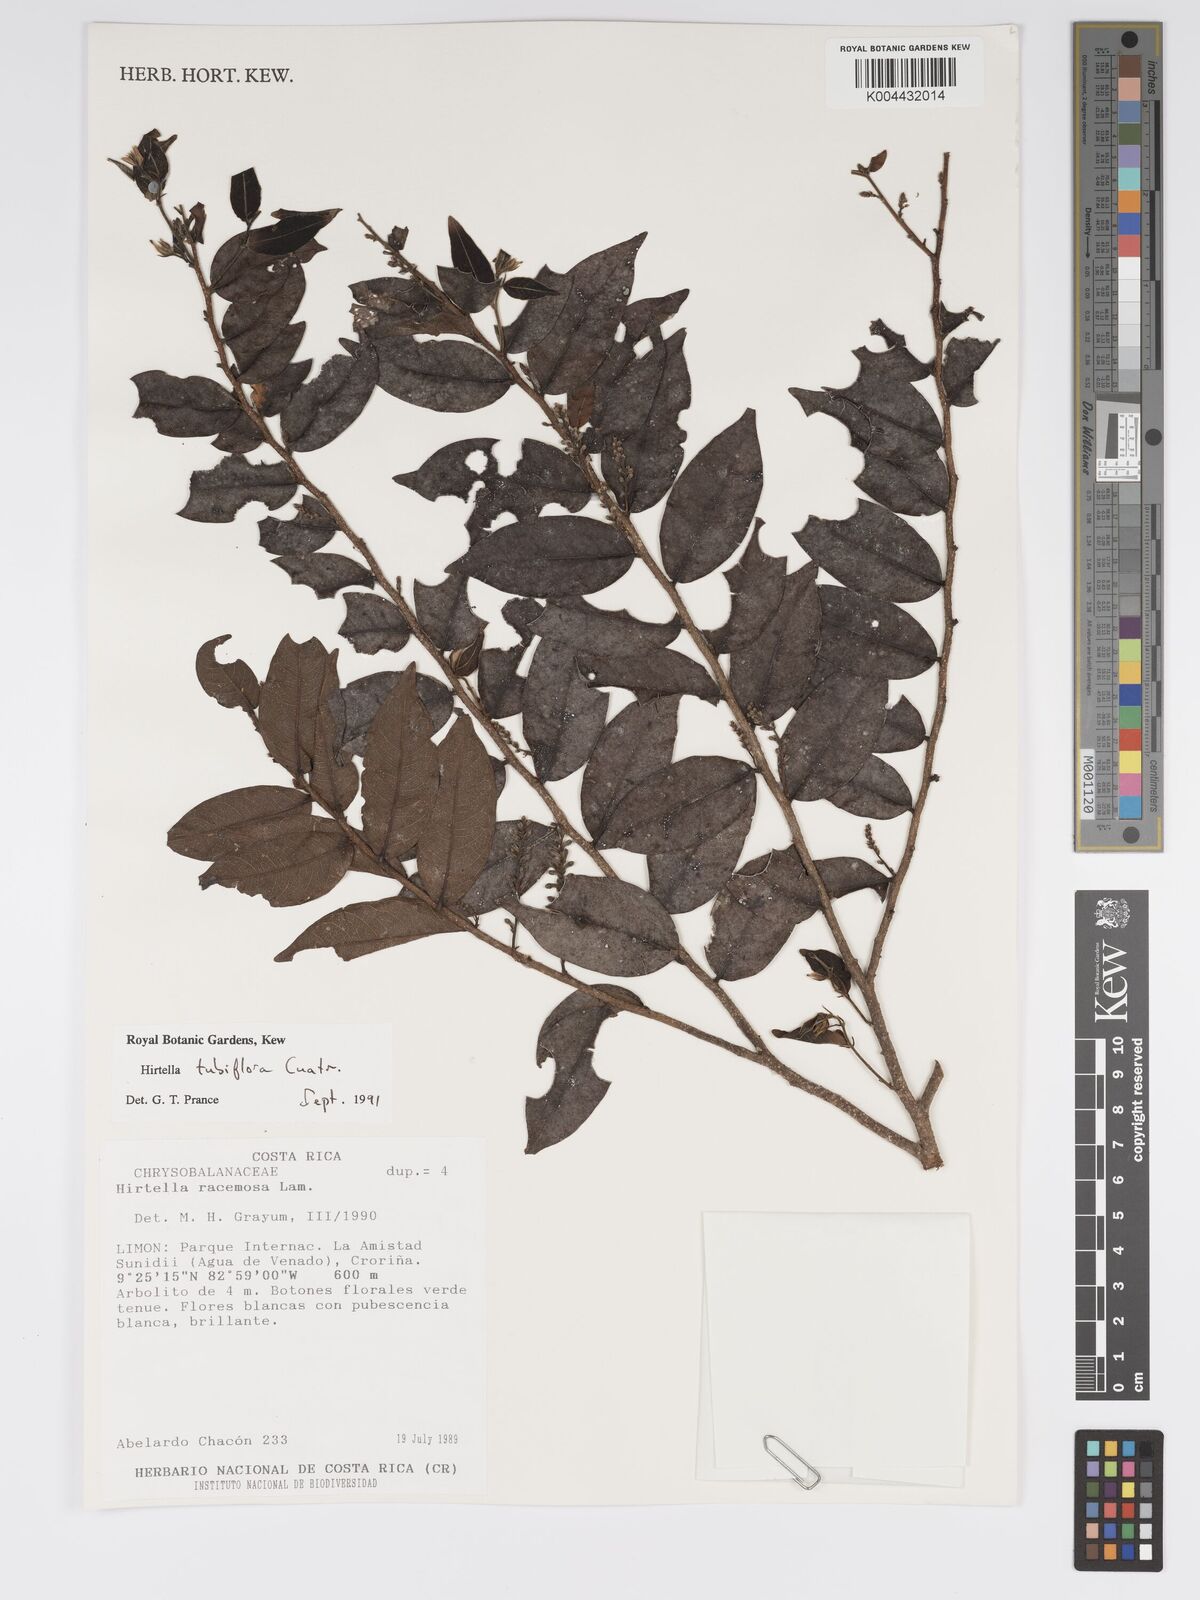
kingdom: Plantae
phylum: Tracheophyta
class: Magnoliopsida
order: Malpighiales
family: Chrysobalanaceae
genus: Hirtella
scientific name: Hirtella tubiflora
